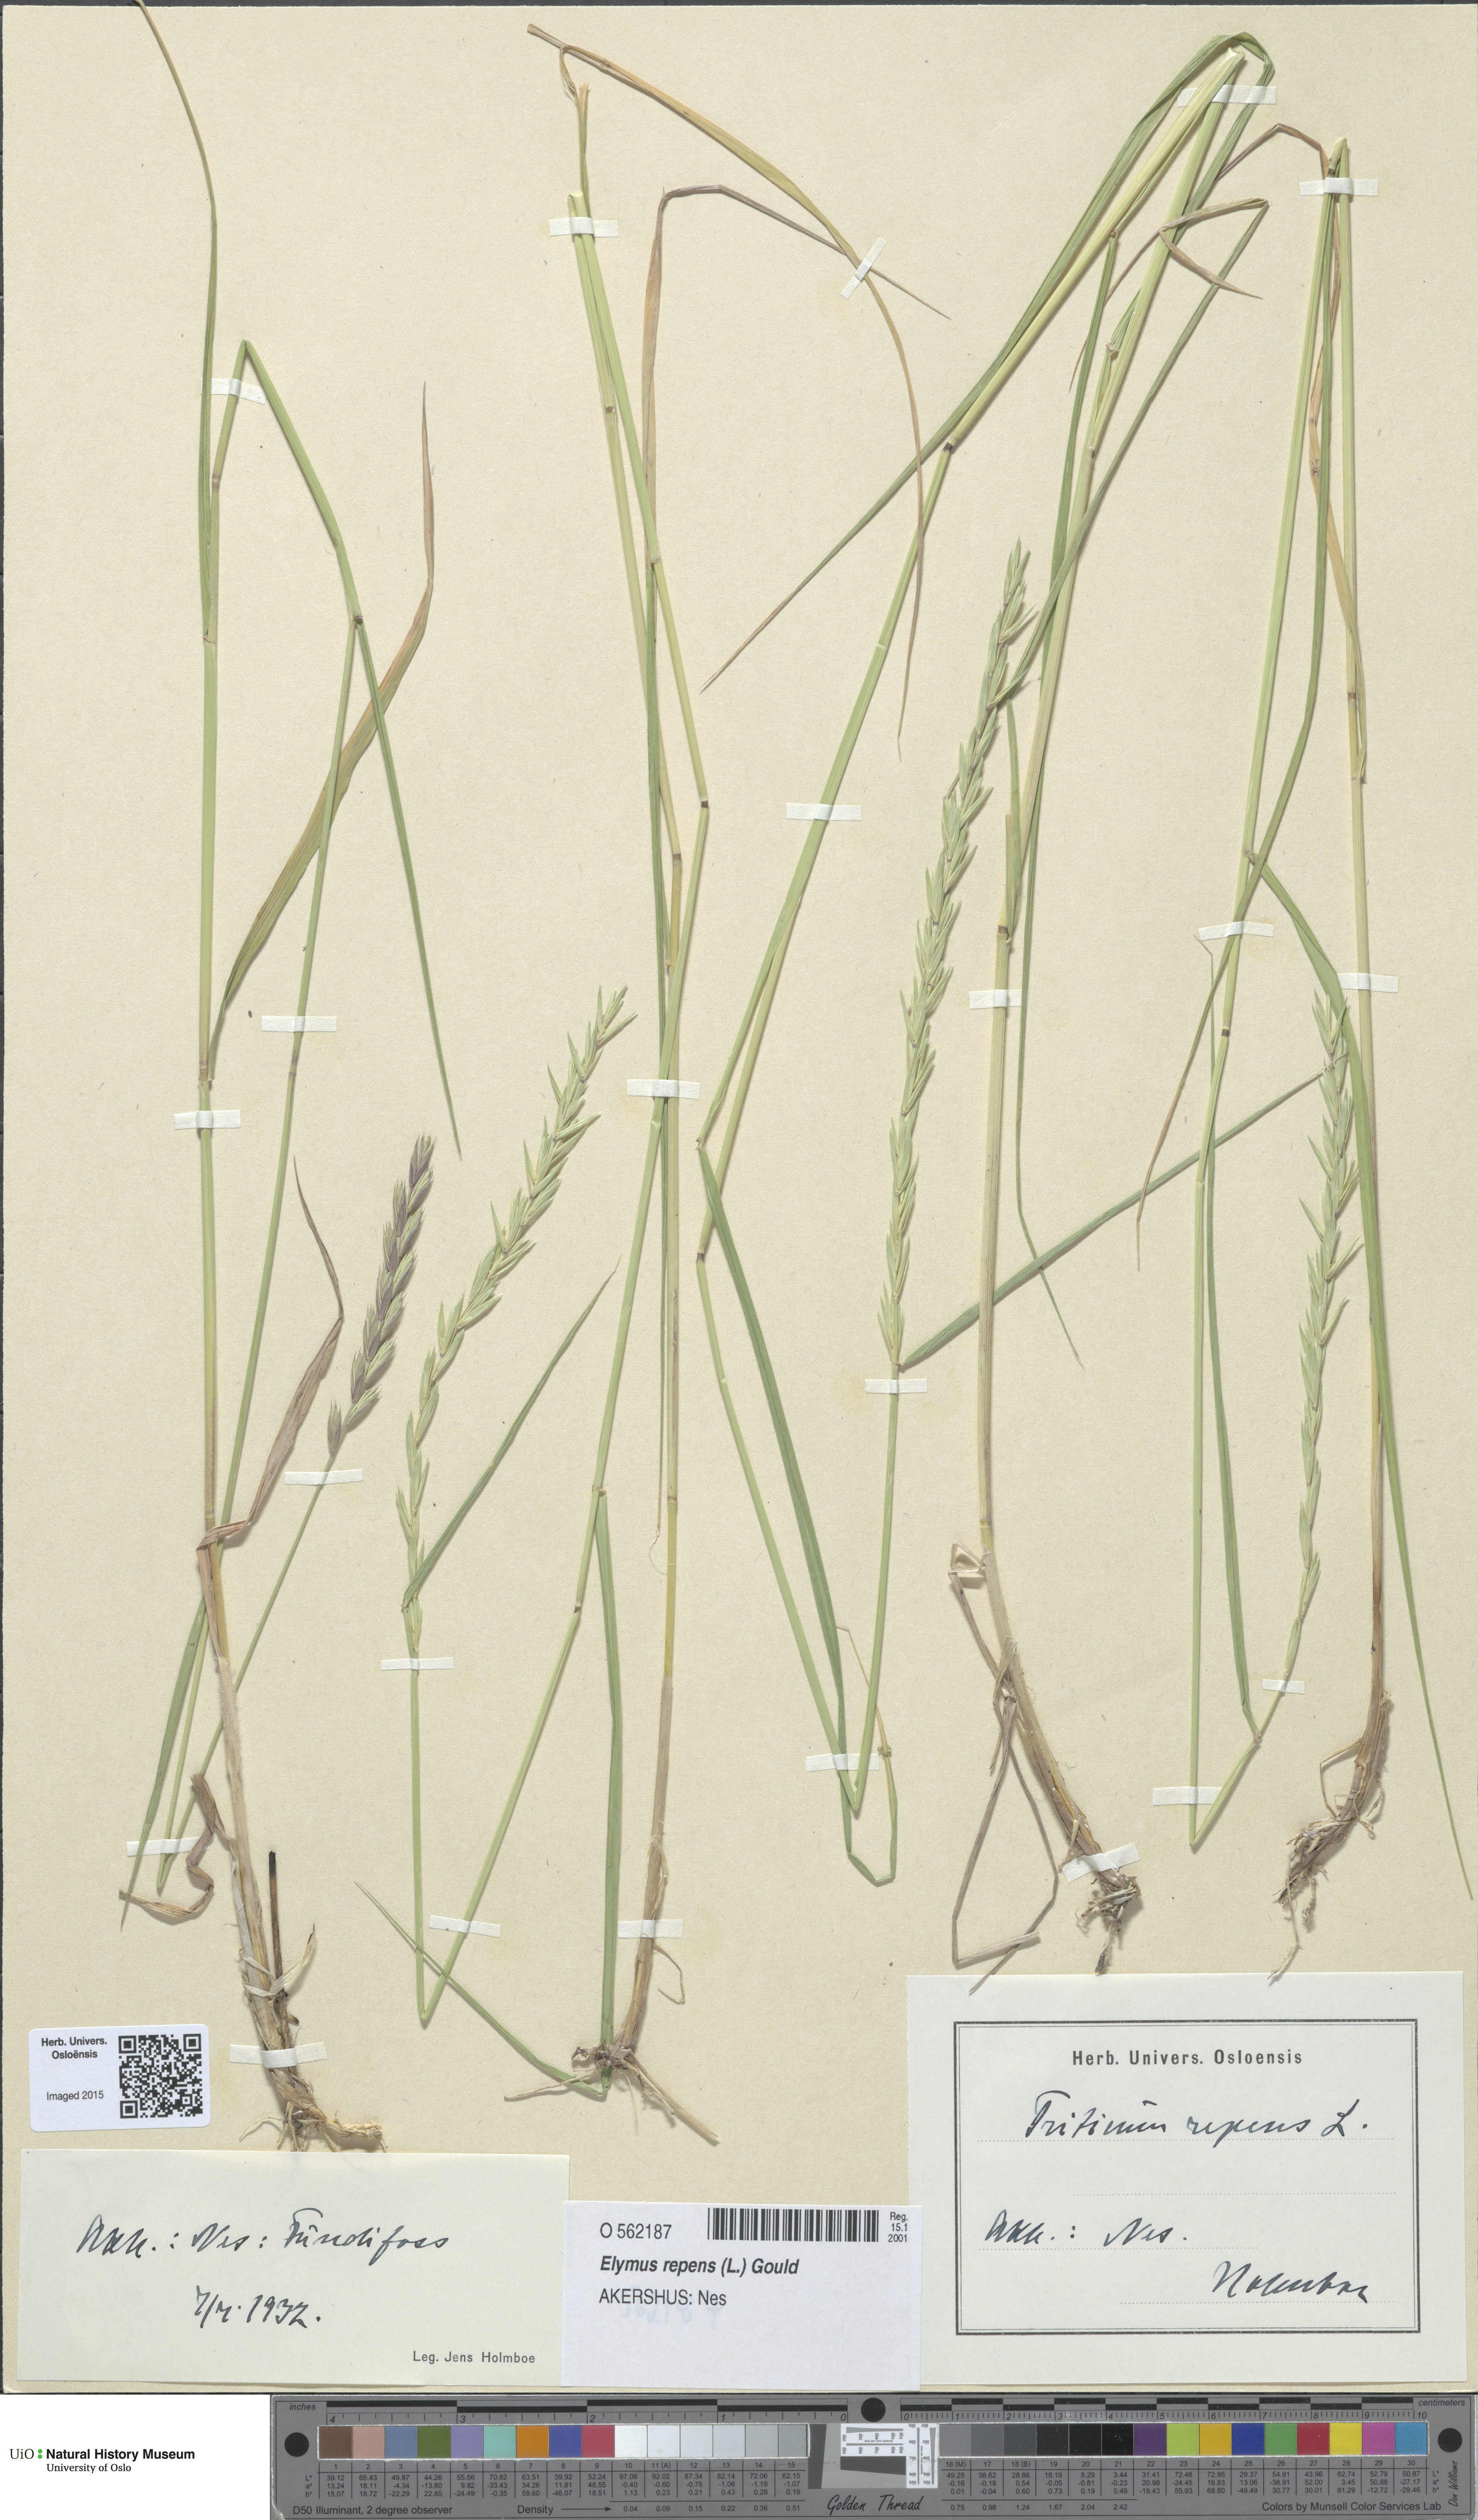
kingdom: Plantae
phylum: Tracheophyta
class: Liliopsida
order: Poales
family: Poaceae
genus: Elymus
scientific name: Elymus repens
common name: Quackgrass
